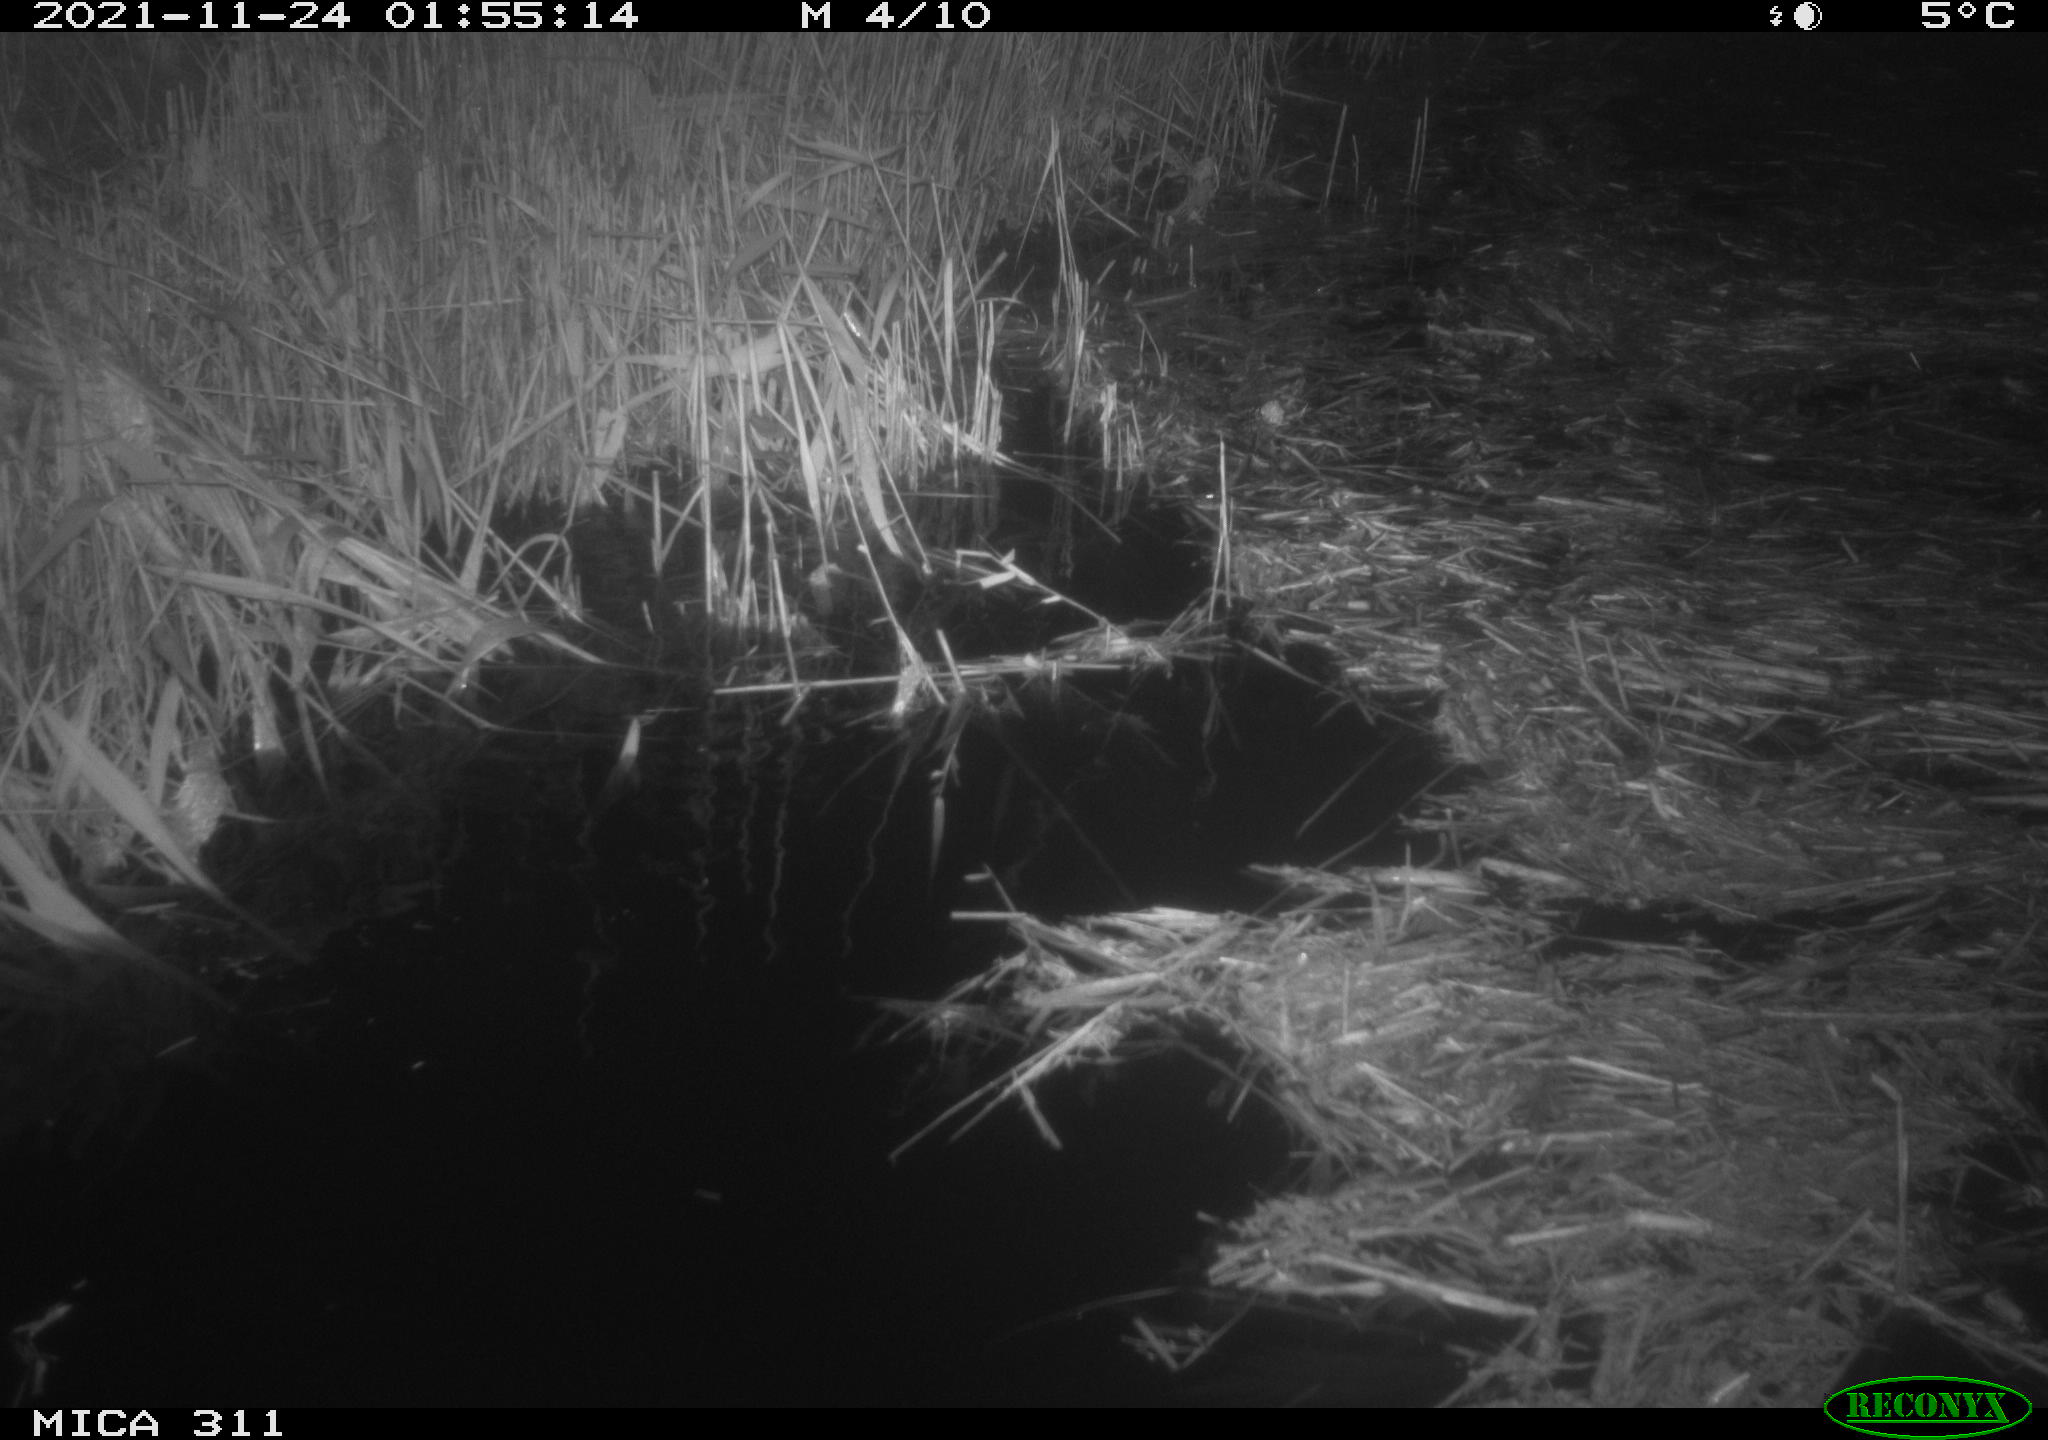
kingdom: Animalia
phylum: Chordata
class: Mammalia
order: Rodentia
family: Muridae
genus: Rattus
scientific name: Rattus norvegicus
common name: Brown rat
